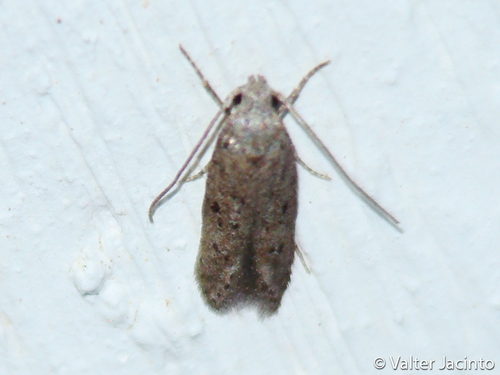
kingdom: Animalia
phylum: Arthropoda
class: Insecta
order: Lepidoptera
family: Gelechiidae
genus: Carpatolechia
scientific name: Carpatolechia
